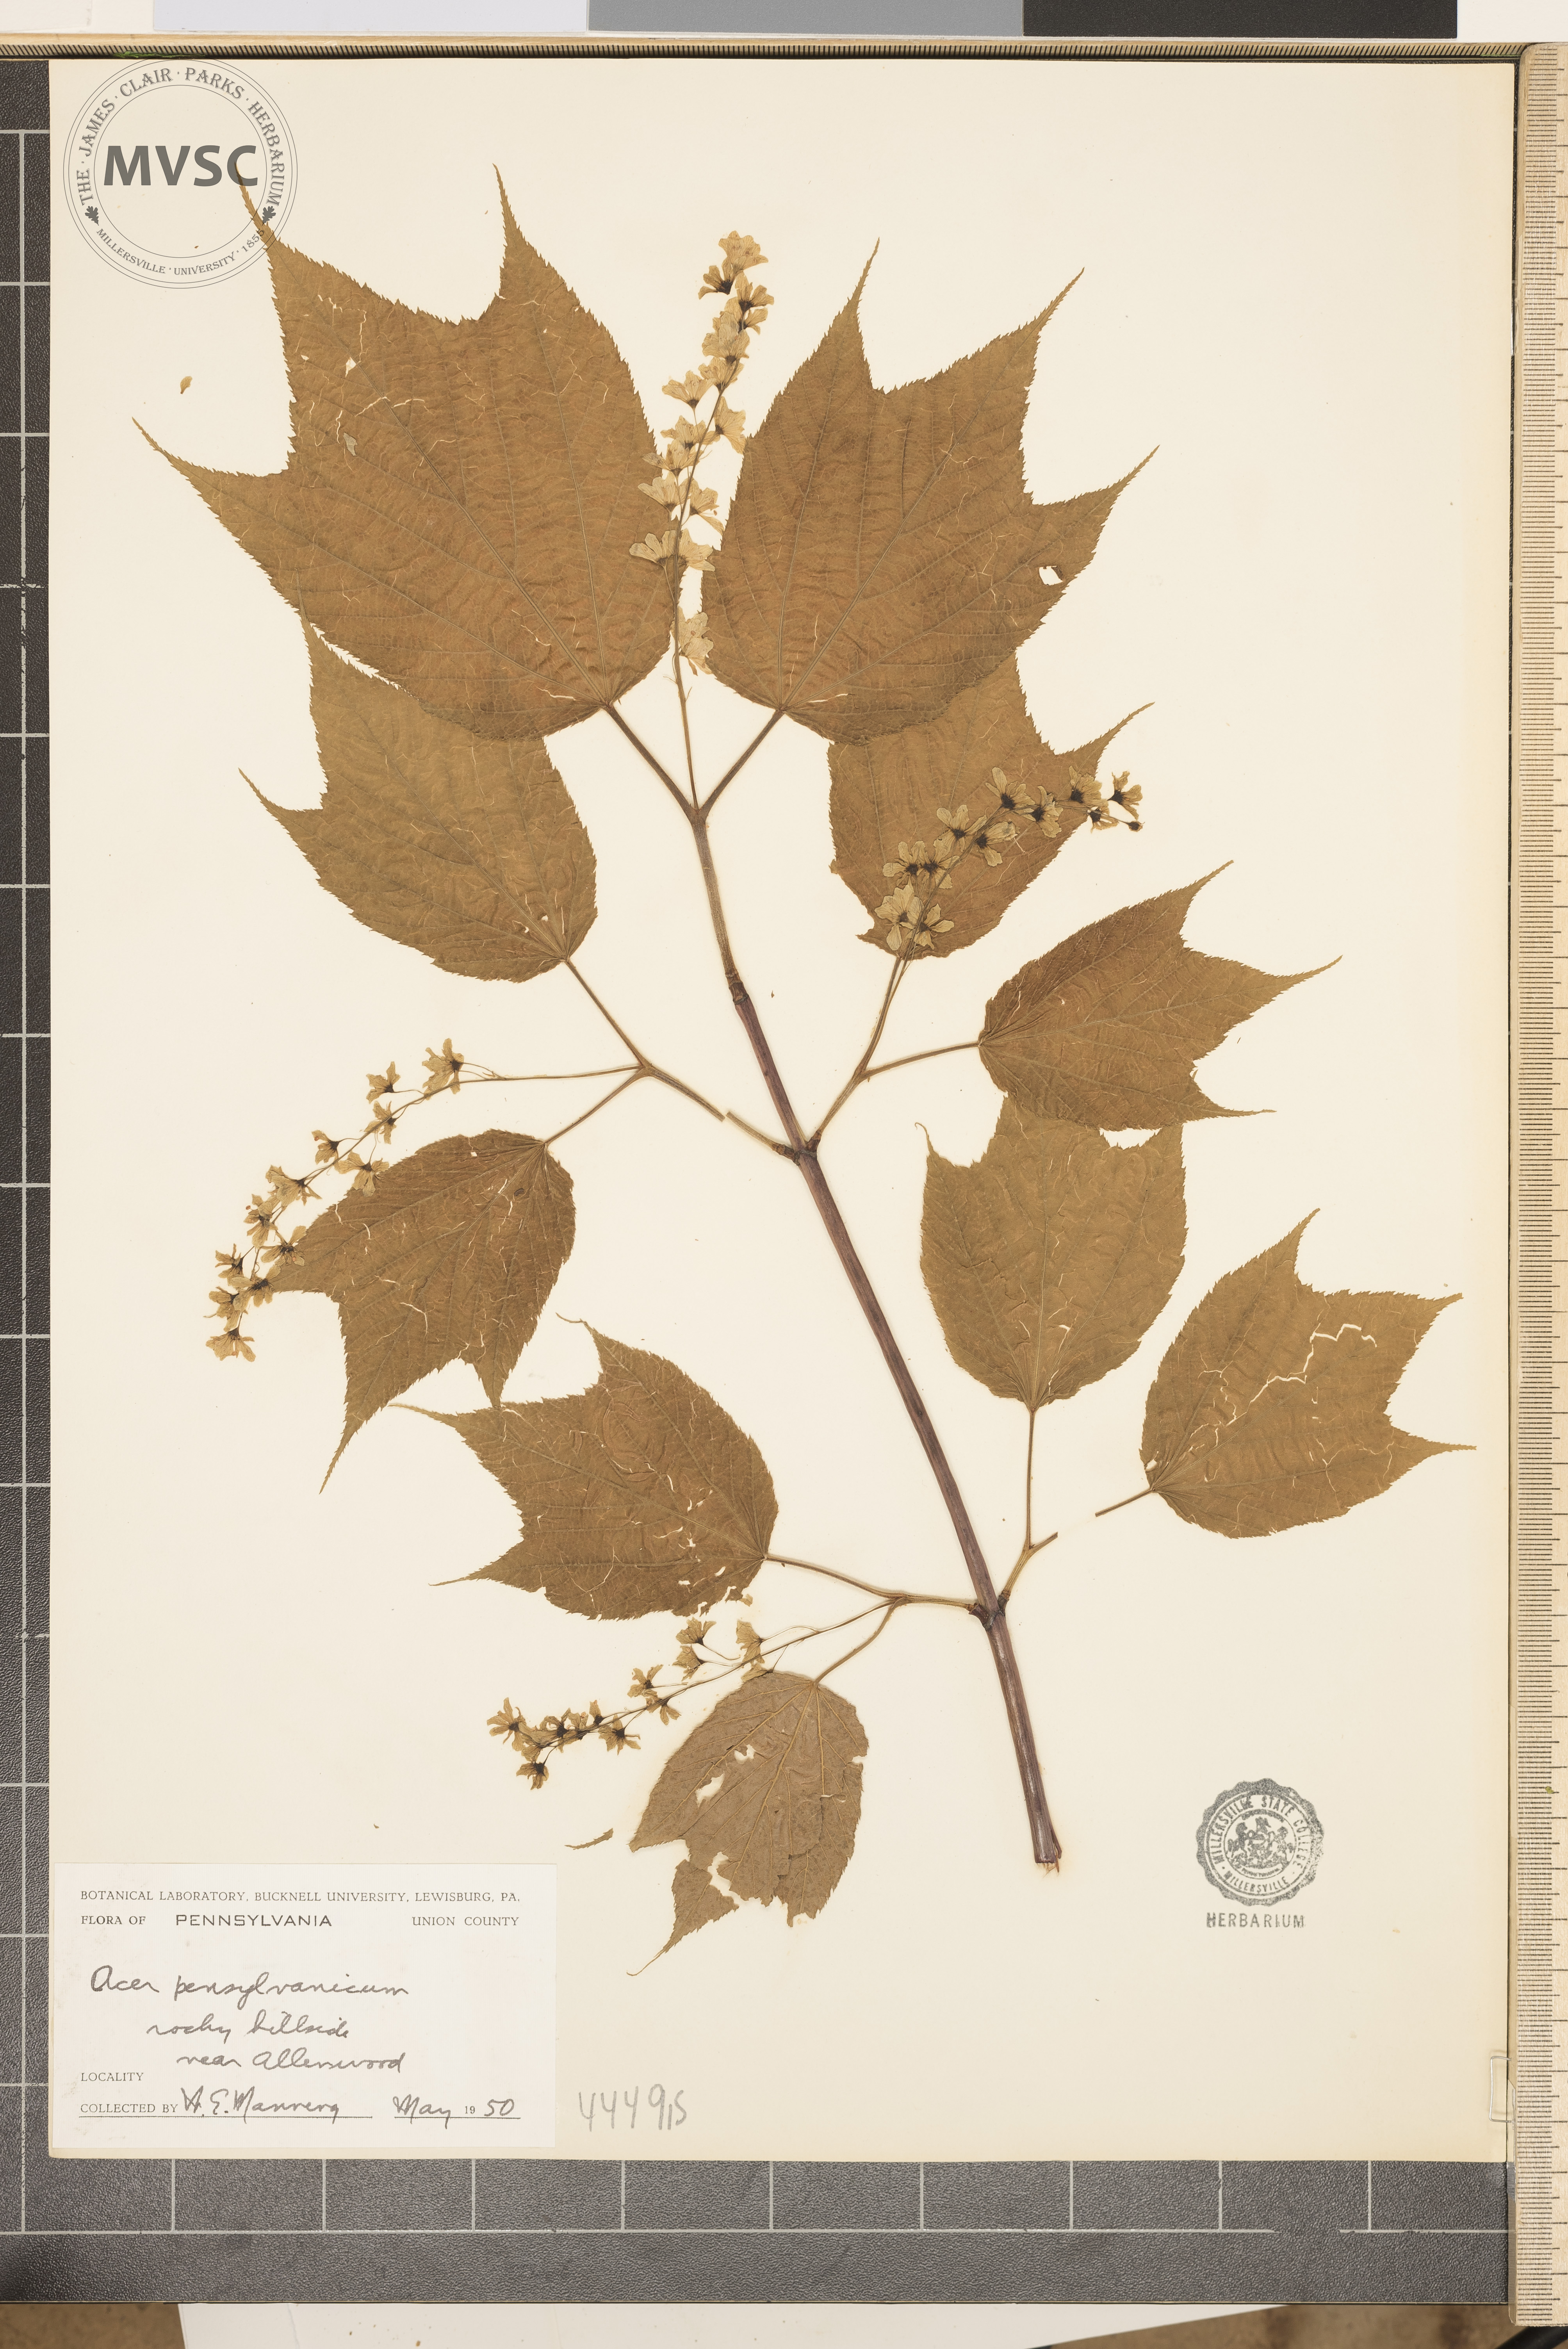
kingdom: Plantae
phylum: Tracheophyta
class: Magnoliopsida
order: Sapindales
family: Sapindaceae
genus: Acer
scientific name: Acer pensylvanicum
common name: Moosewood
